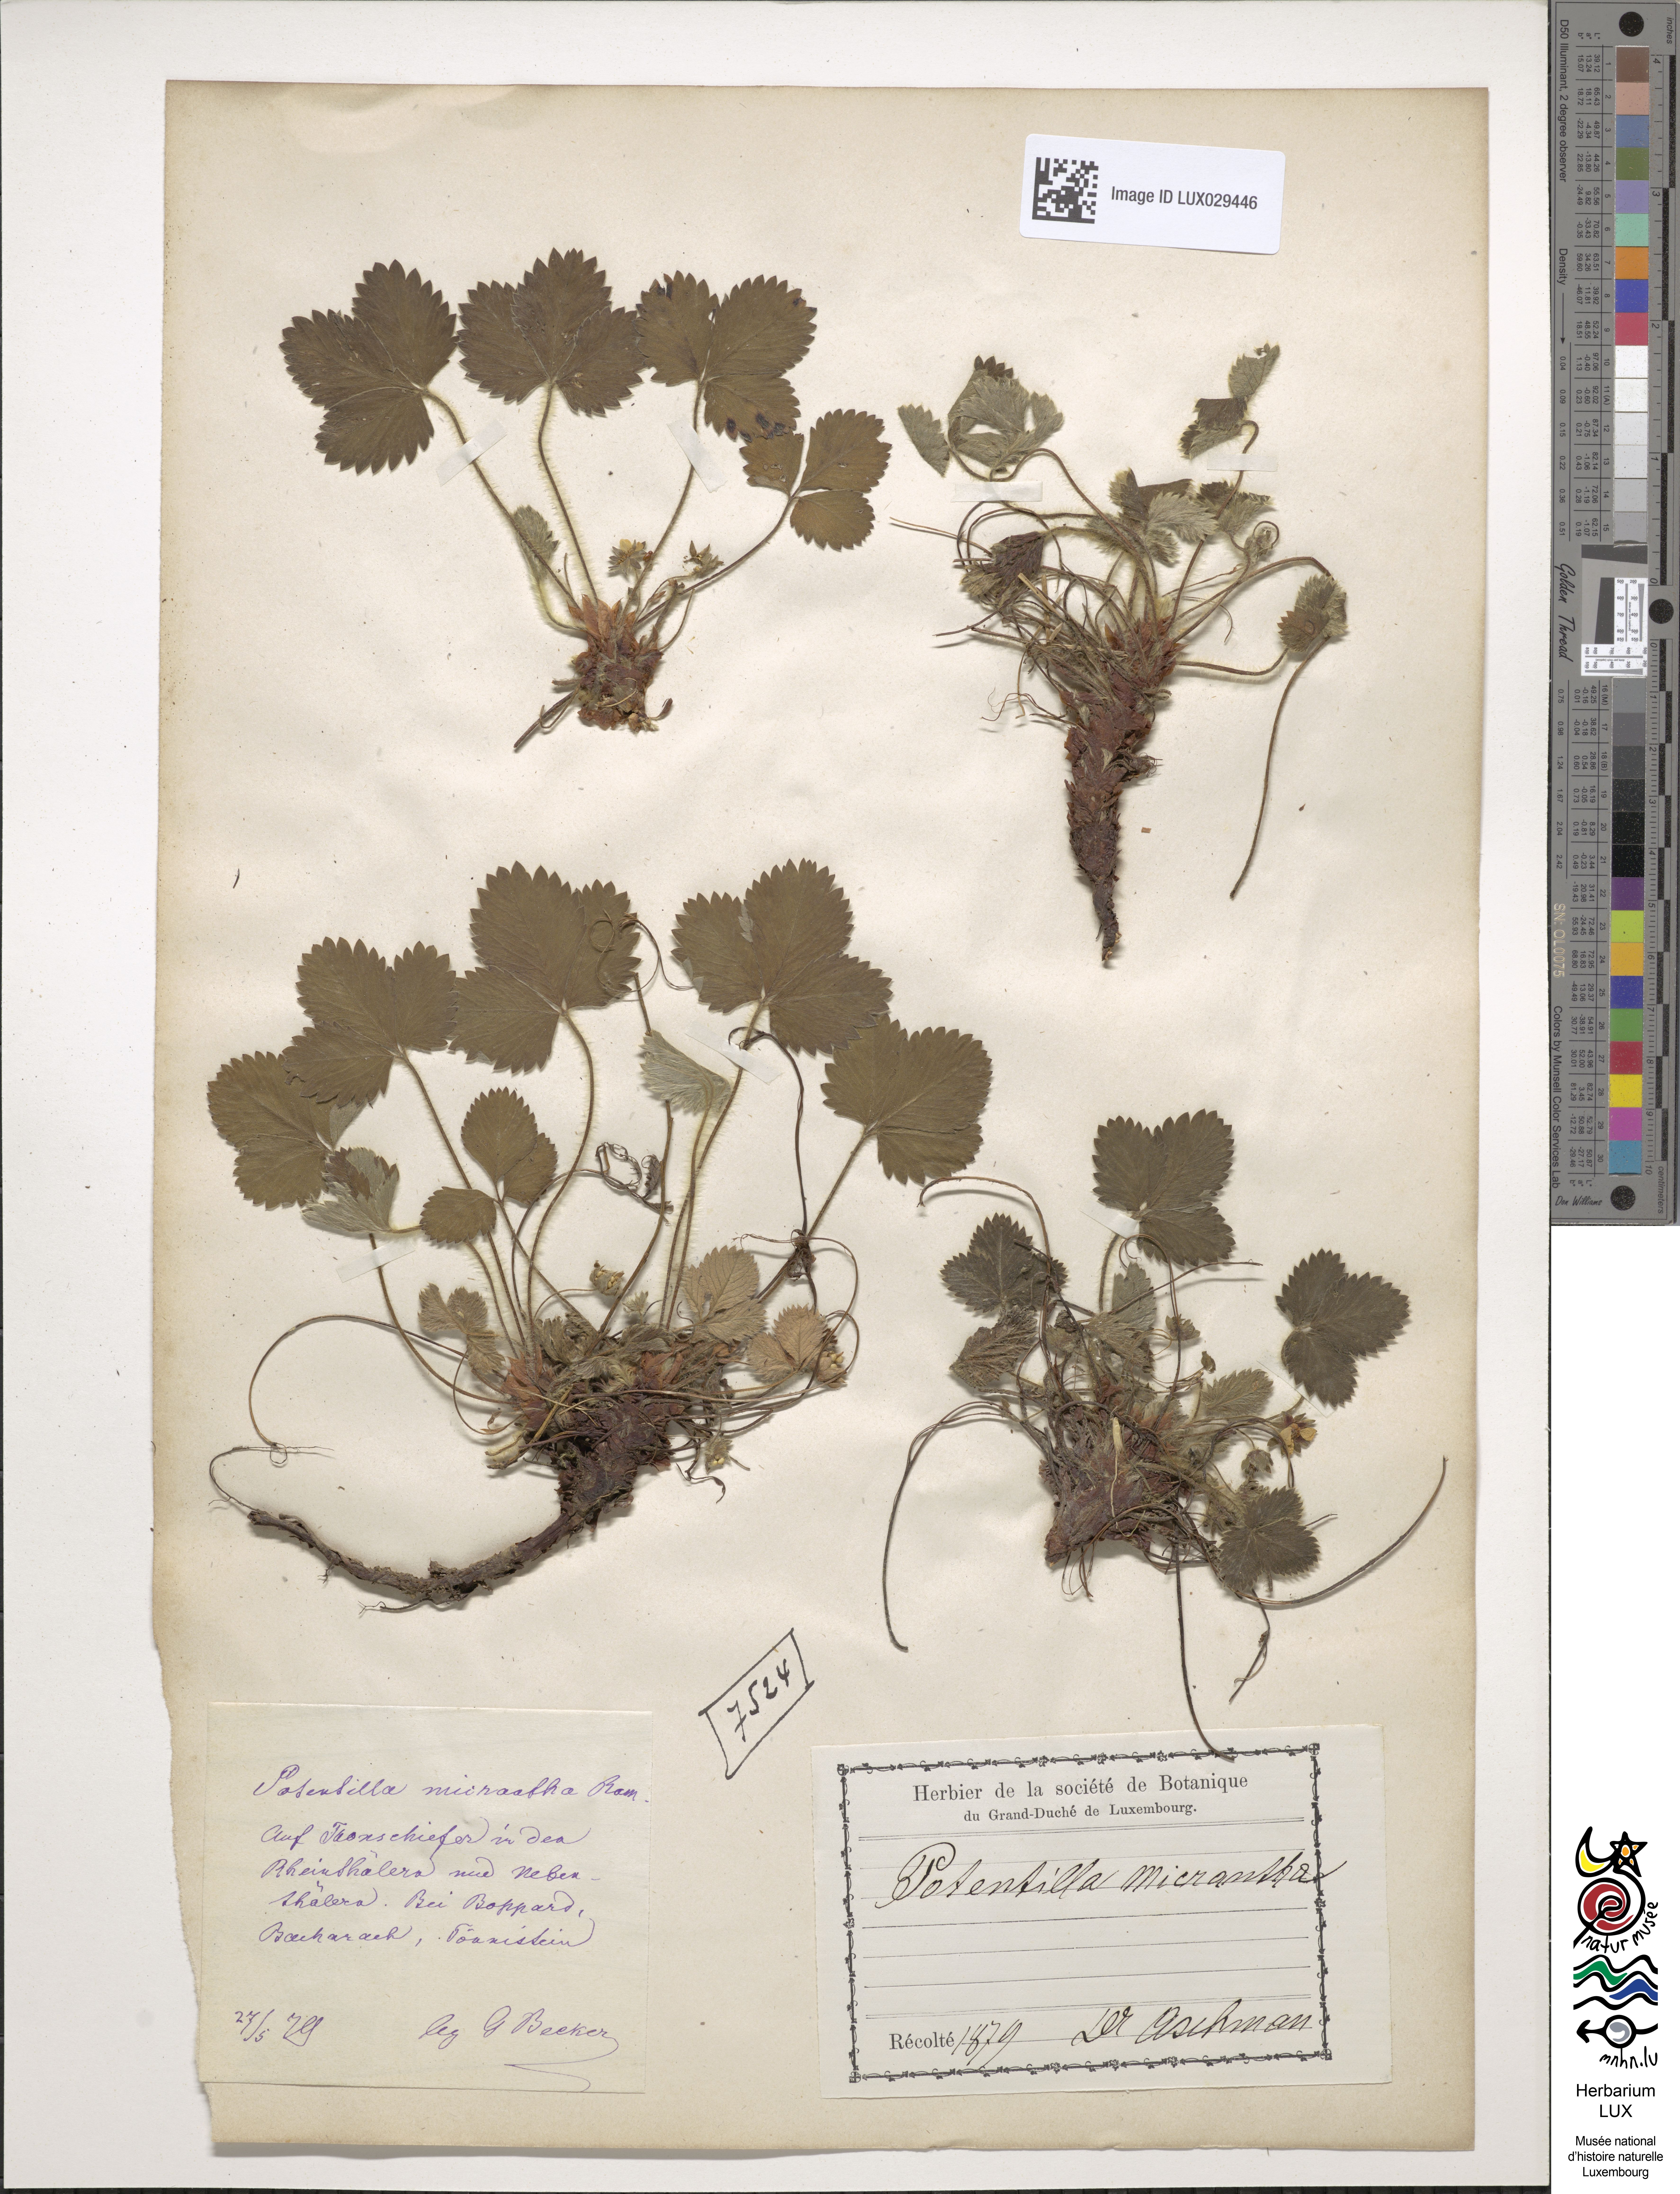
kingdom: Plantae
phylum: Tracheophyta
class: Magnoliopsida
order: Rosales
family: Rosaceae
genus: Potentilla
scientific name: Potentilla micrantha
